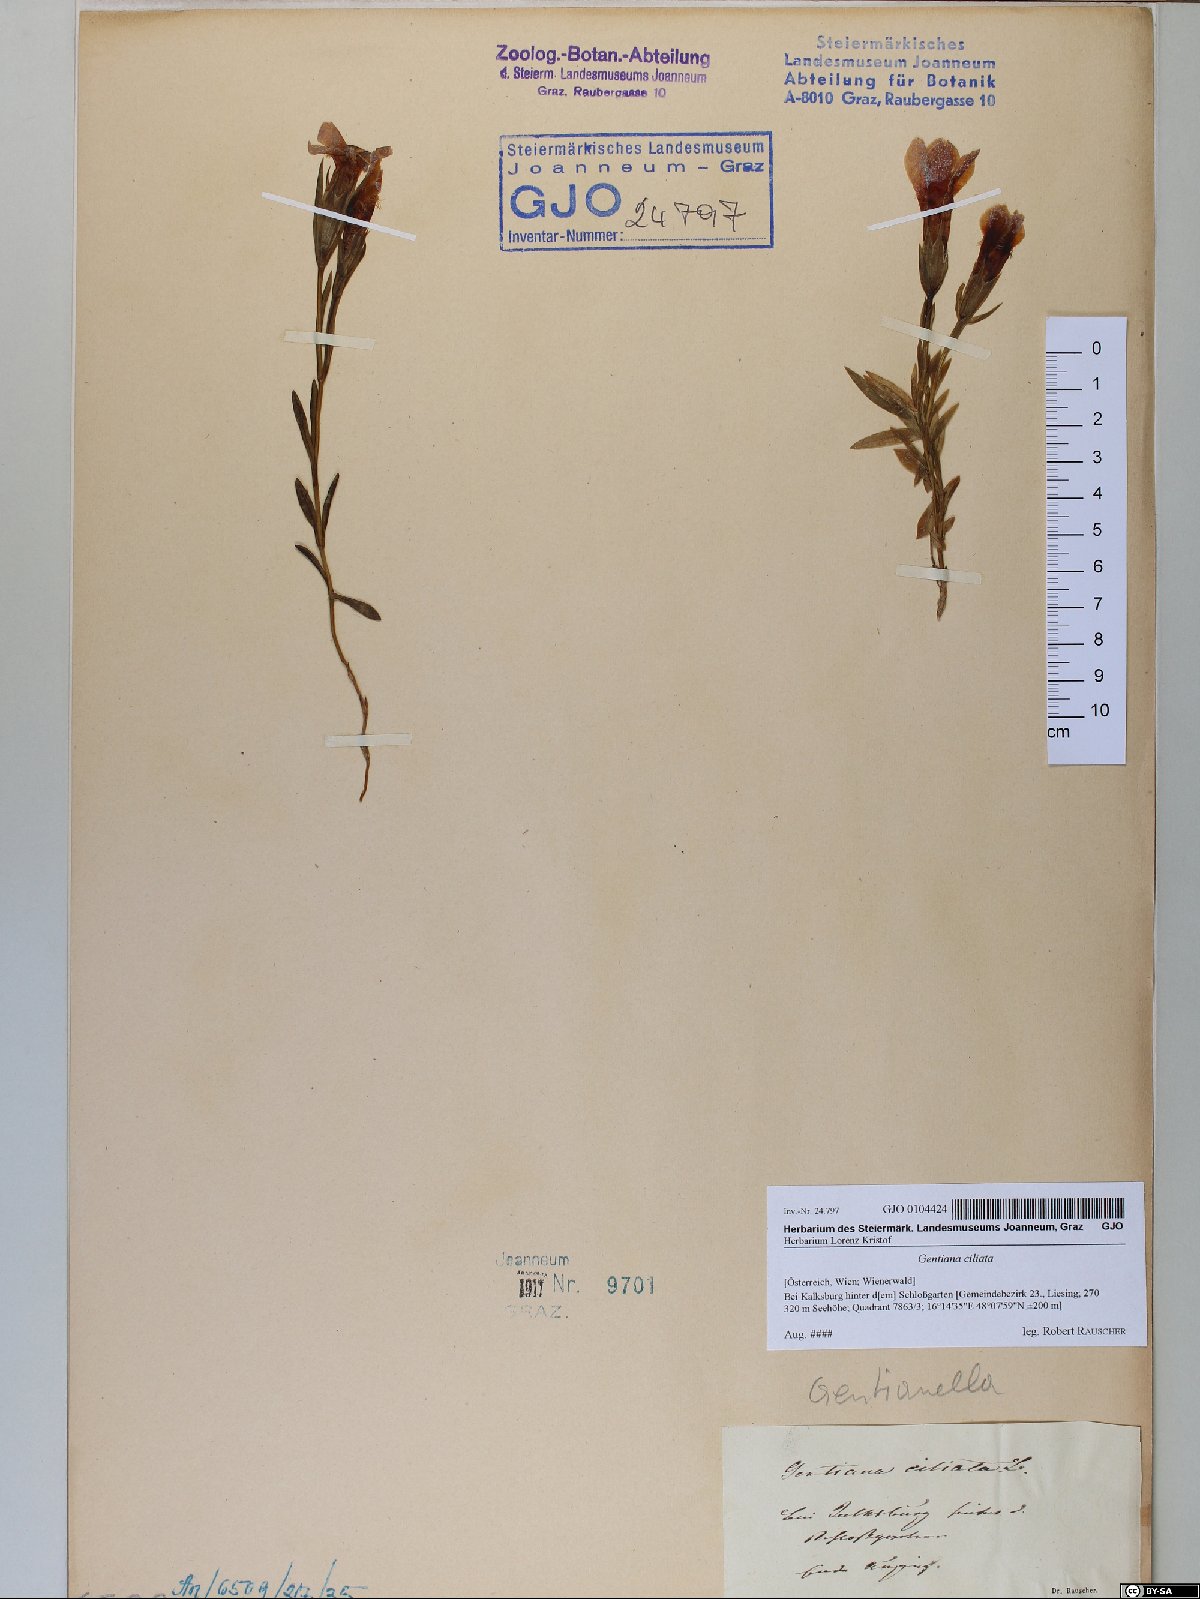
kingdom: Plantae
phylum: Tracheophyta
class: Magnoliopsida
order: Gentianales
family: Gentianaceae
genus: Gentianopsis
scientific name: Gentianopsis ciliata
